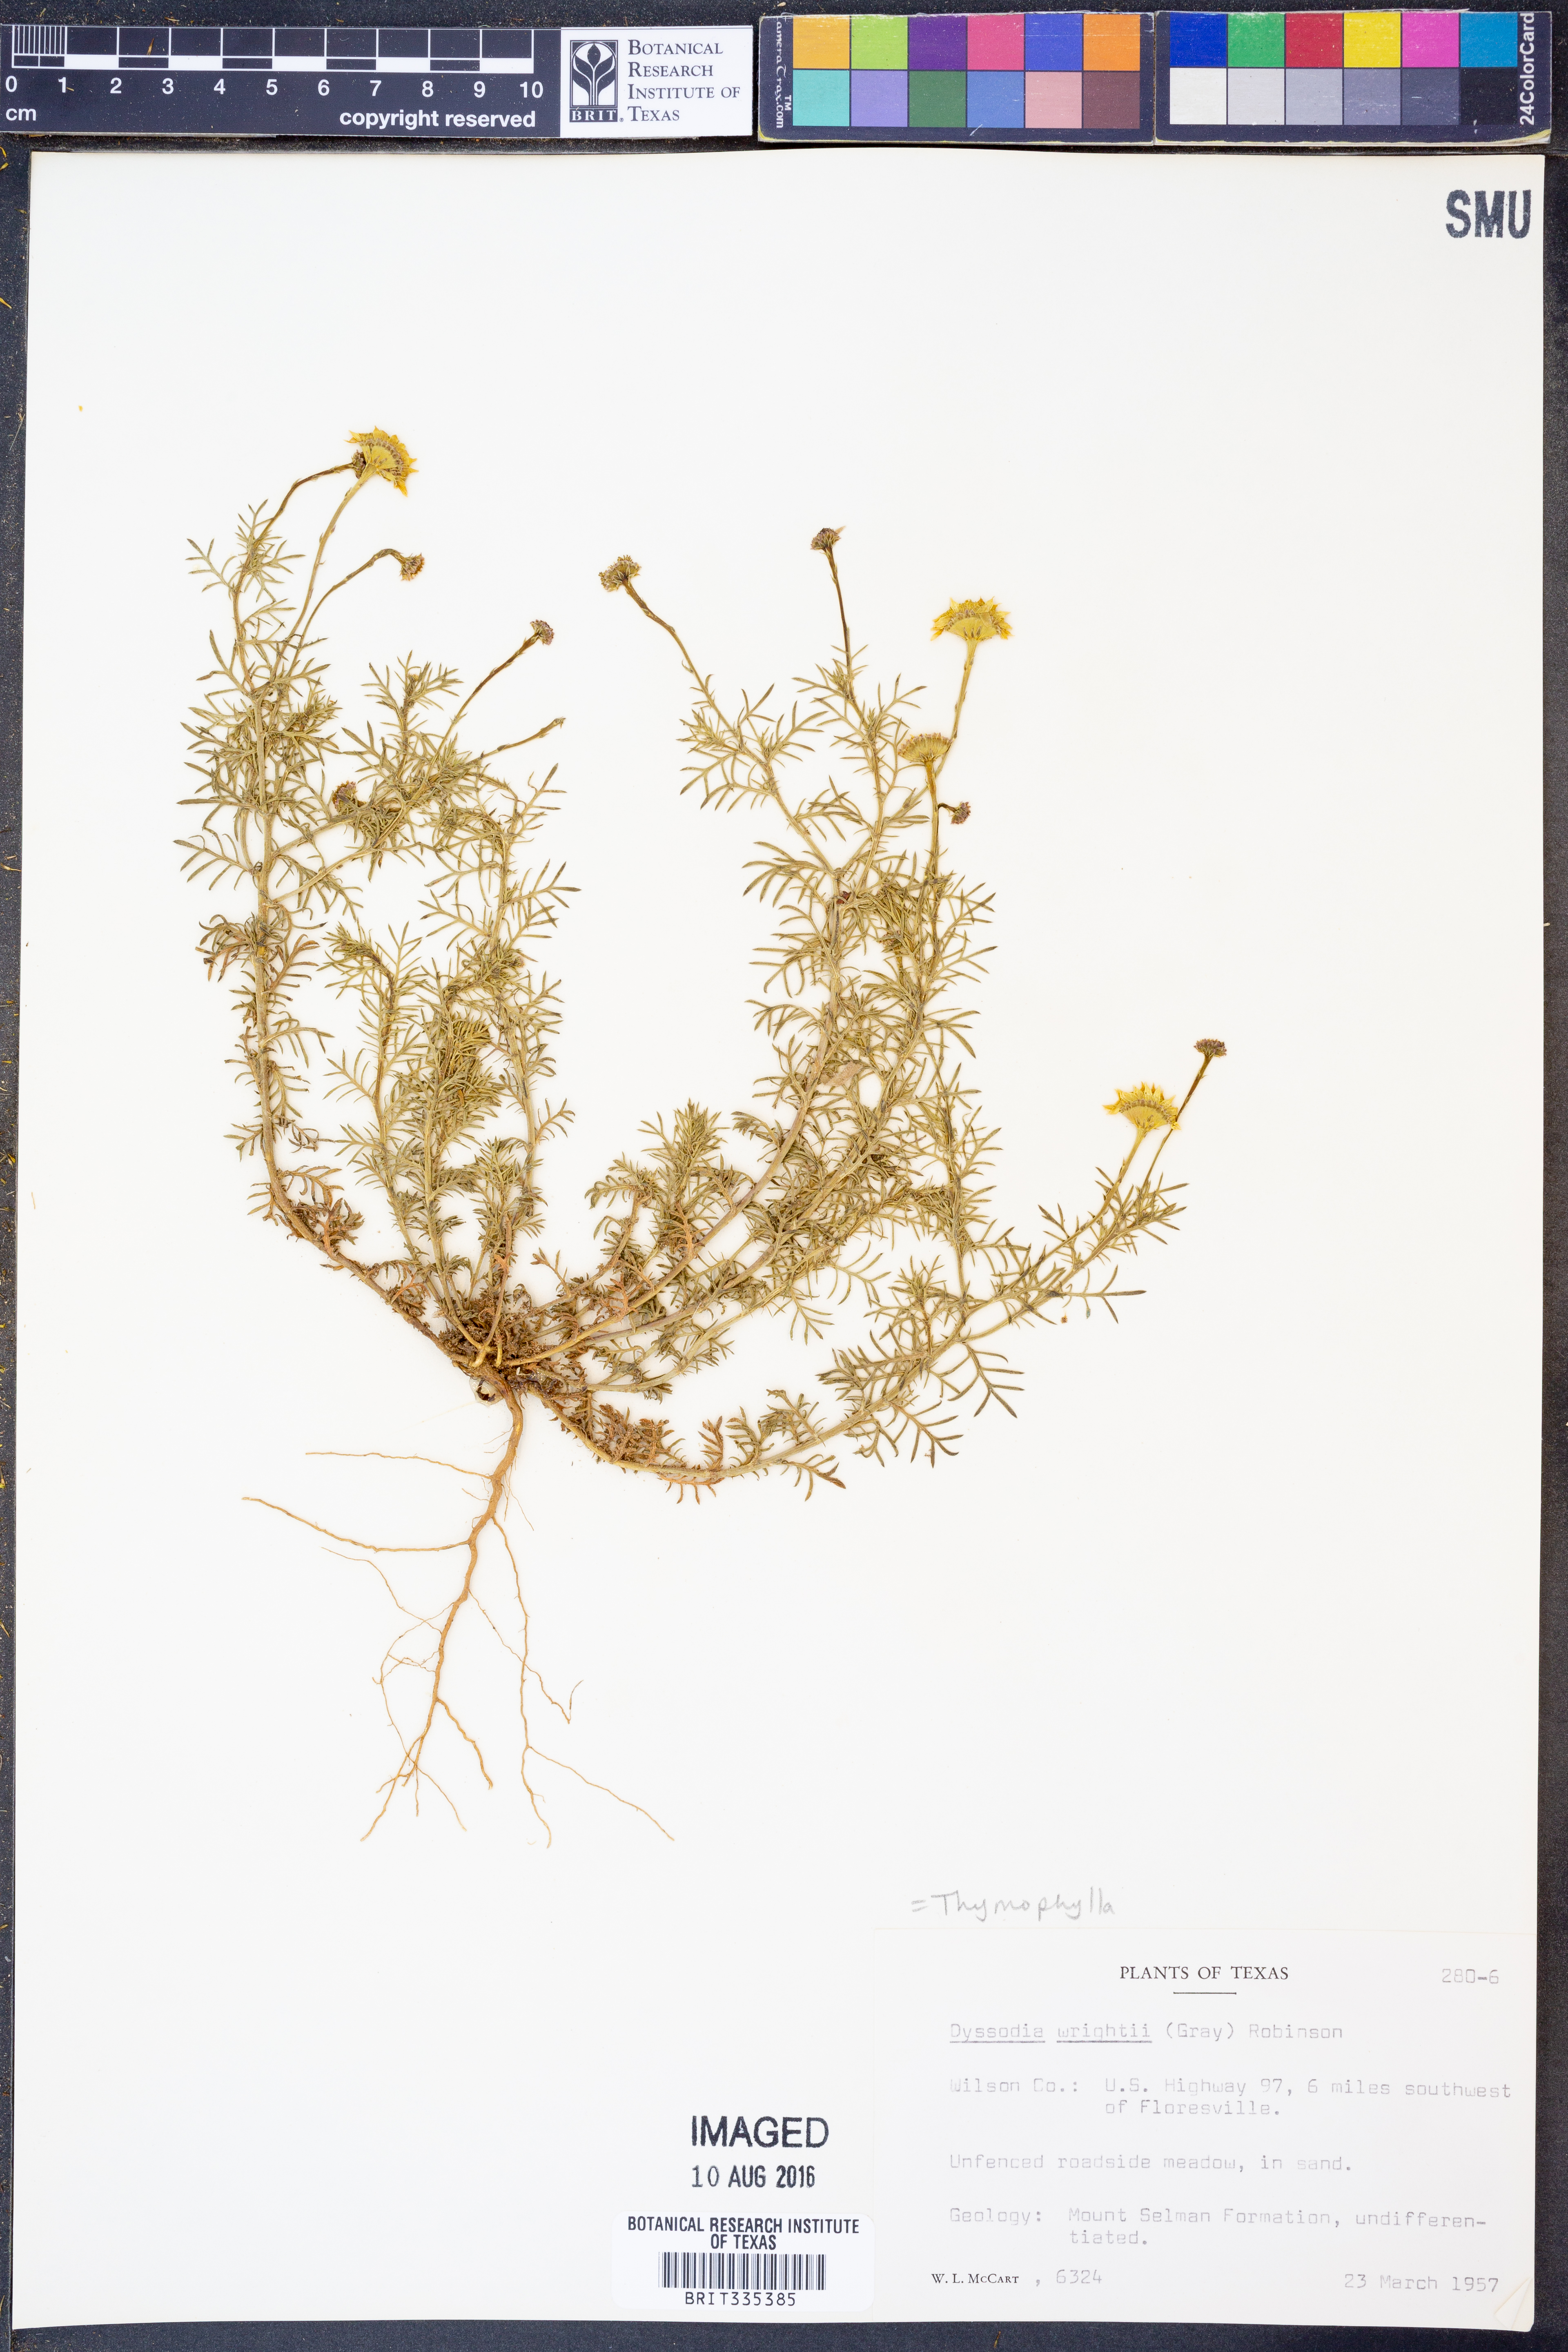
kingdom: Plantae
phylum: Tracheophyta
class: Magnoliopsida
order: Asterales
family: Asteraceae
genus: Thymophylla
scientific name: Thymophylla tenuiloba
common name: Dahlberg's daisy
